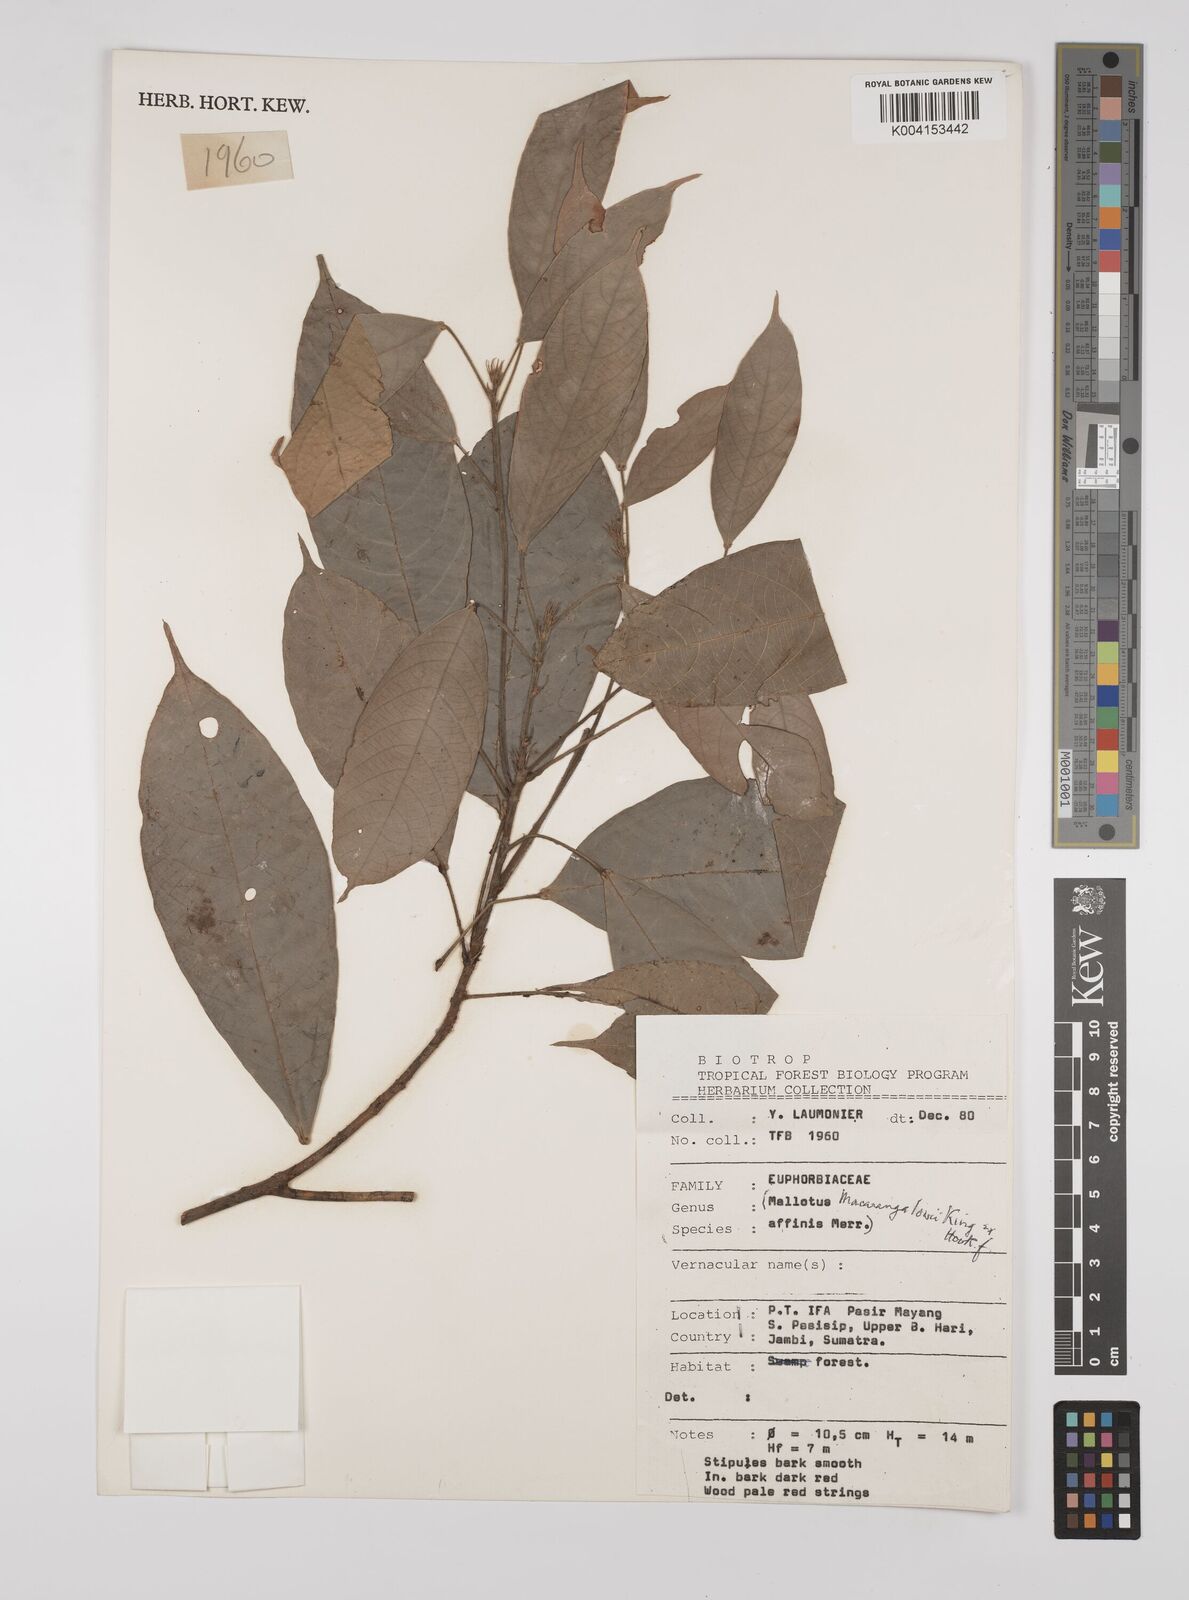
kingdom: Plantae
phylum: Tracheophyta
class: Magnoliopsida
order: Malpighiales
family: Euphorbiaceae
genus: Macaranga
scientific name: Macaranga lowii
